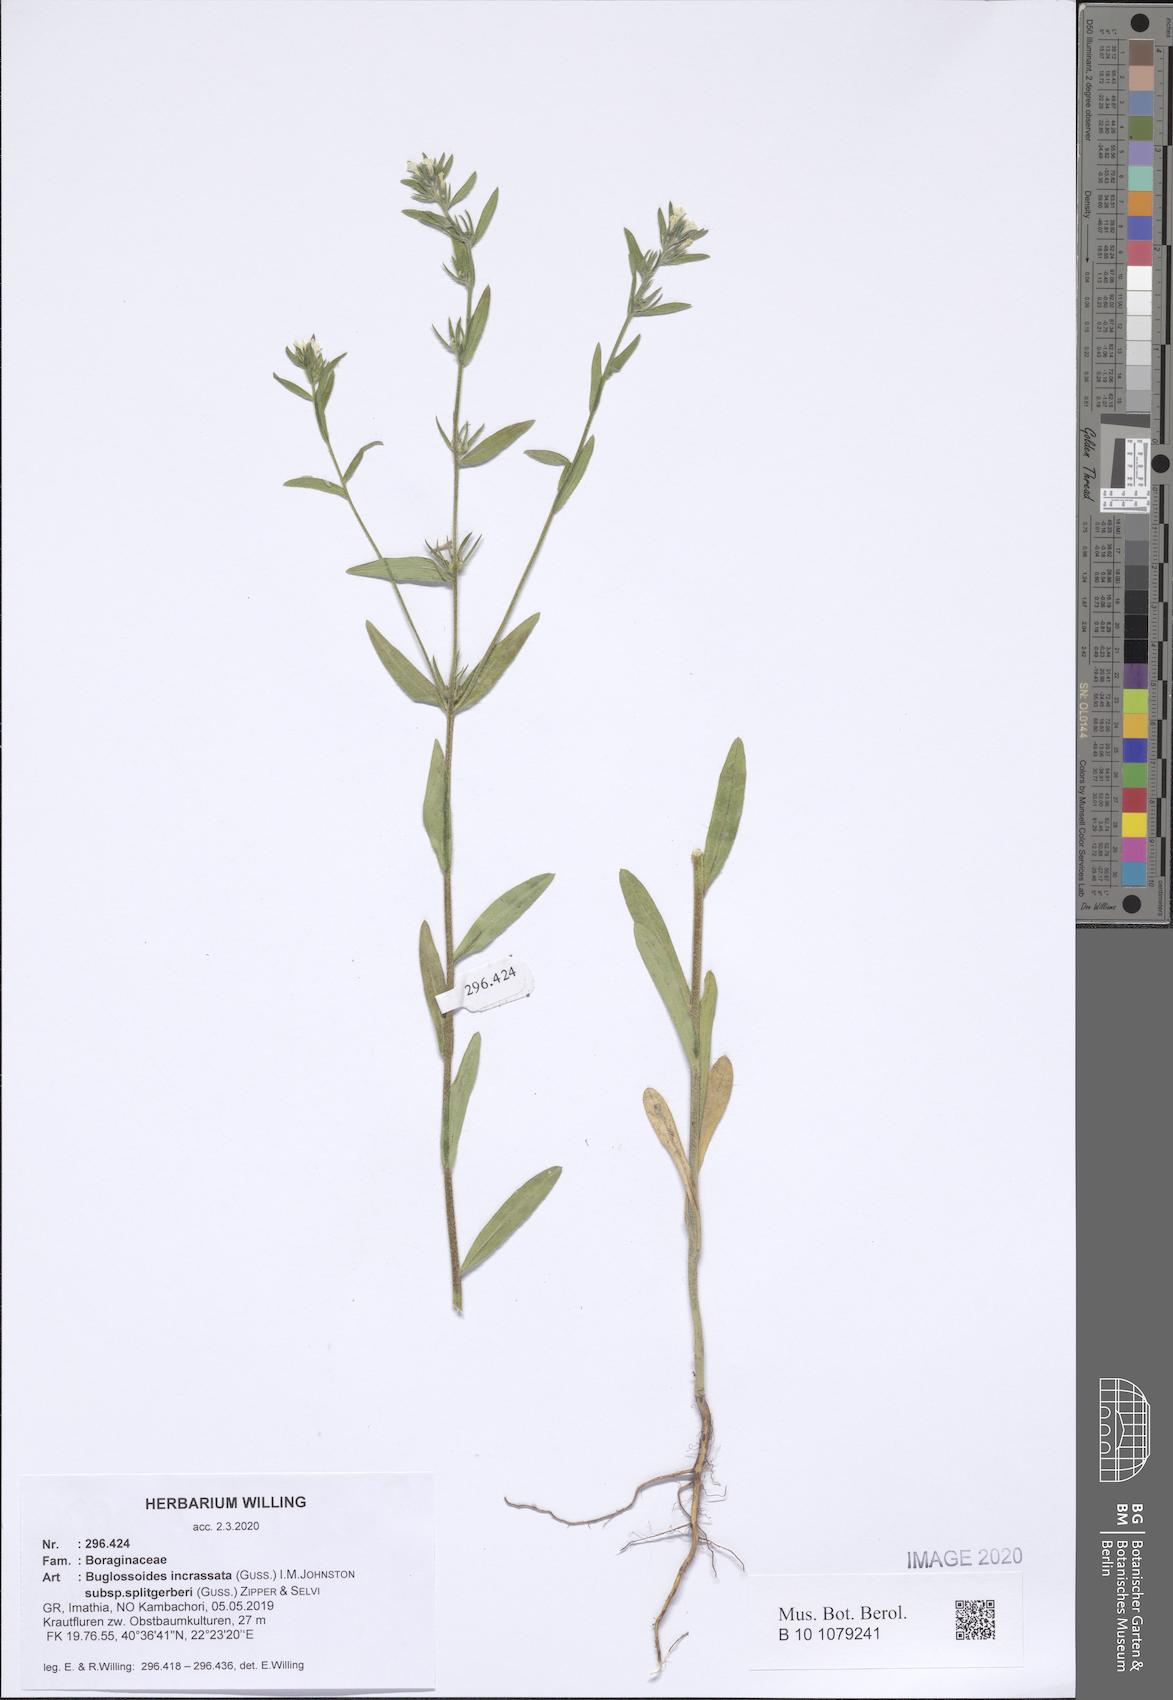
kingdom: Plantae
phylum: Tracheophyta
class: Magnoliopsida
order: Boraginales
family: Boraginaceae
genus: Buglossoides
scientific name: Buglossoides incrassata
